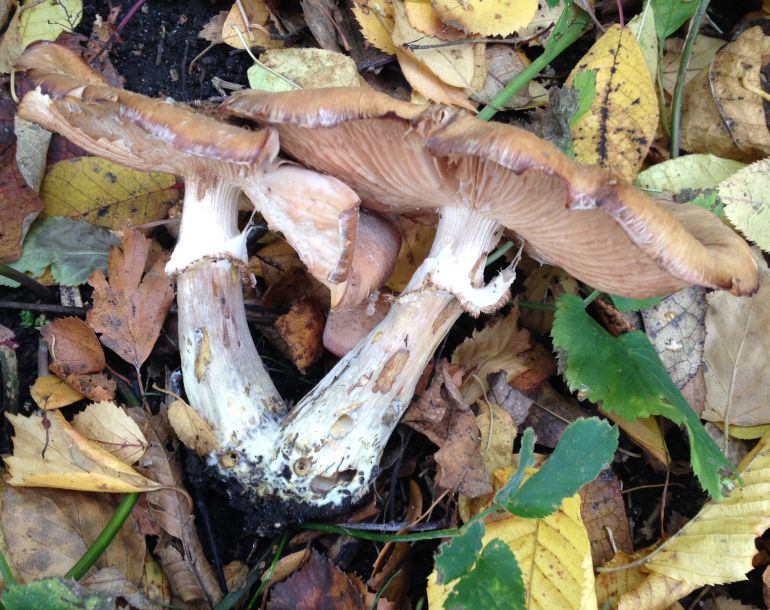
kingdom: Fungi
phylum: Basidiomycota
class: Agaricomycetes
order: Agaricales
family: Physalacriaceae
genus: Armillaria
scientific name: Armillaria lutea
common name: køllestokket honningsvamp
